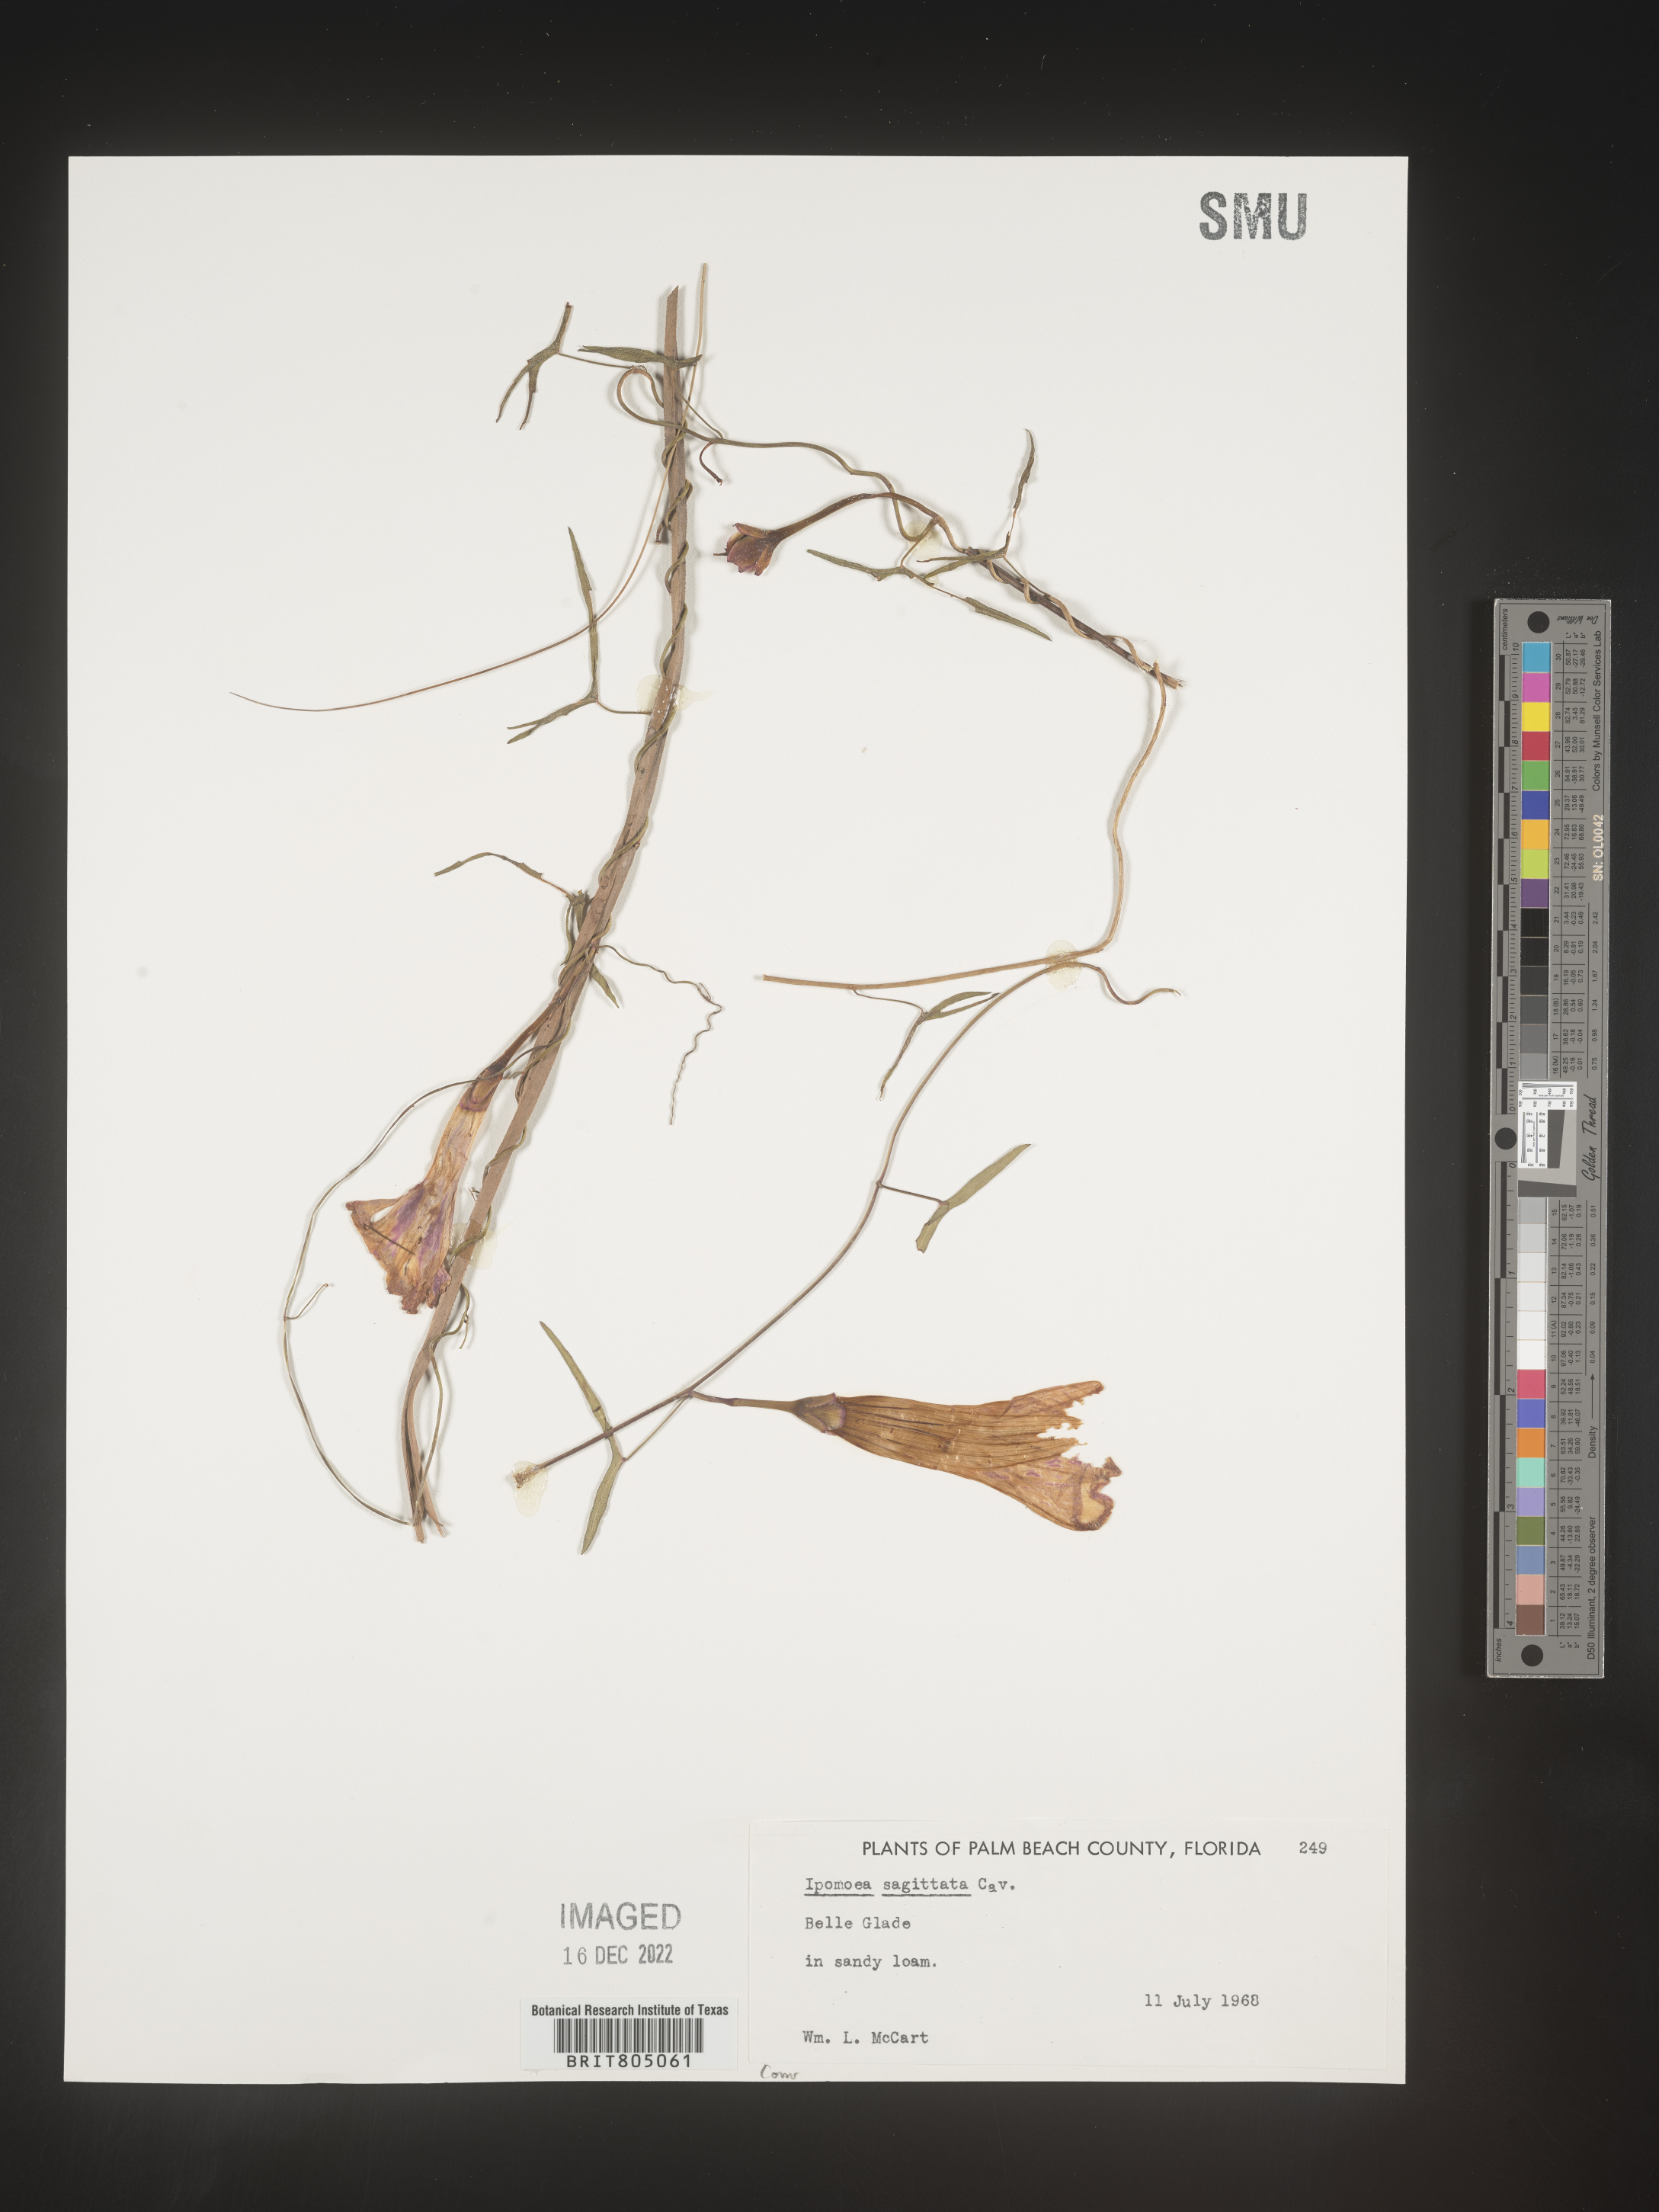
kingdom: Plantae
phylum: Tracheophyta
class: Magnoliopsida
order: Solanales
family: Convolvulaceae
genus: Ipomoea
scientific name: Ipomoea sinensis
